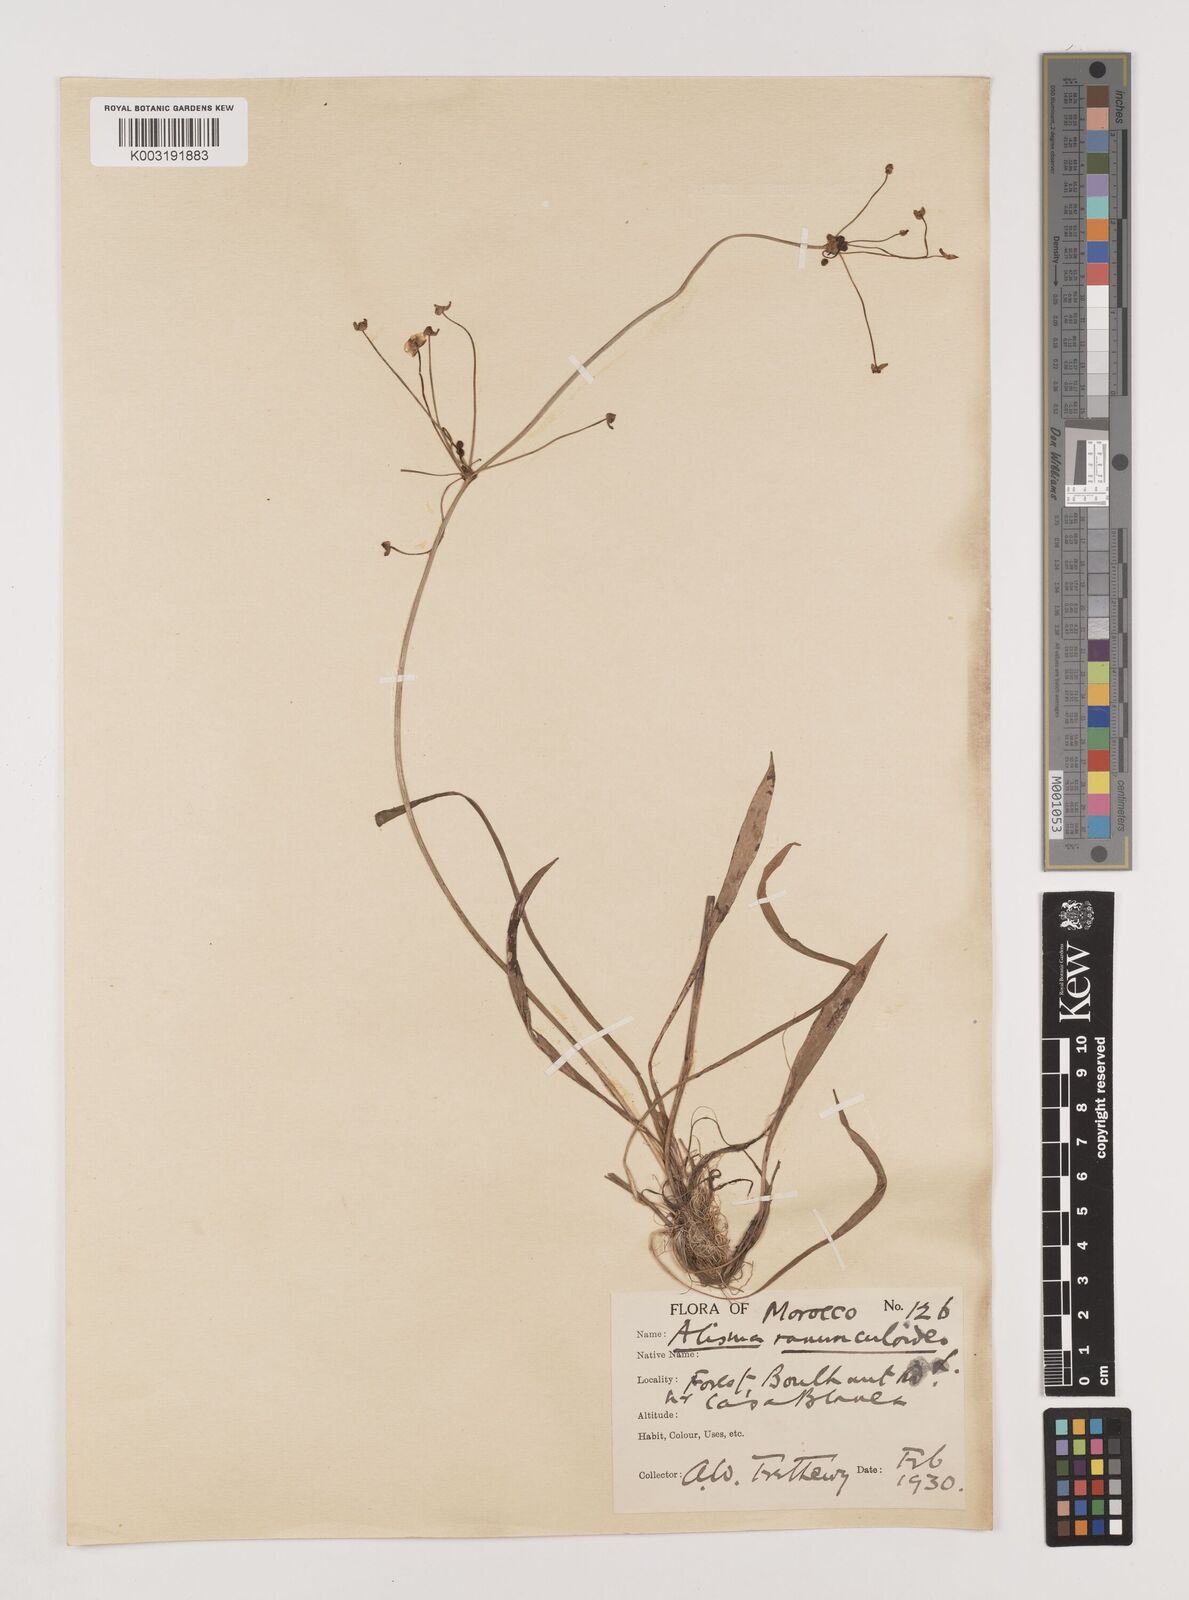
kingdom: Plantae
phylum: Tracheophyta
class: Liliopsida
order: Alismatales
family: Alismataceae
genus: Baldellia
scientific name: Baldellia ranunculoides
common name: Lesser water-plantain
